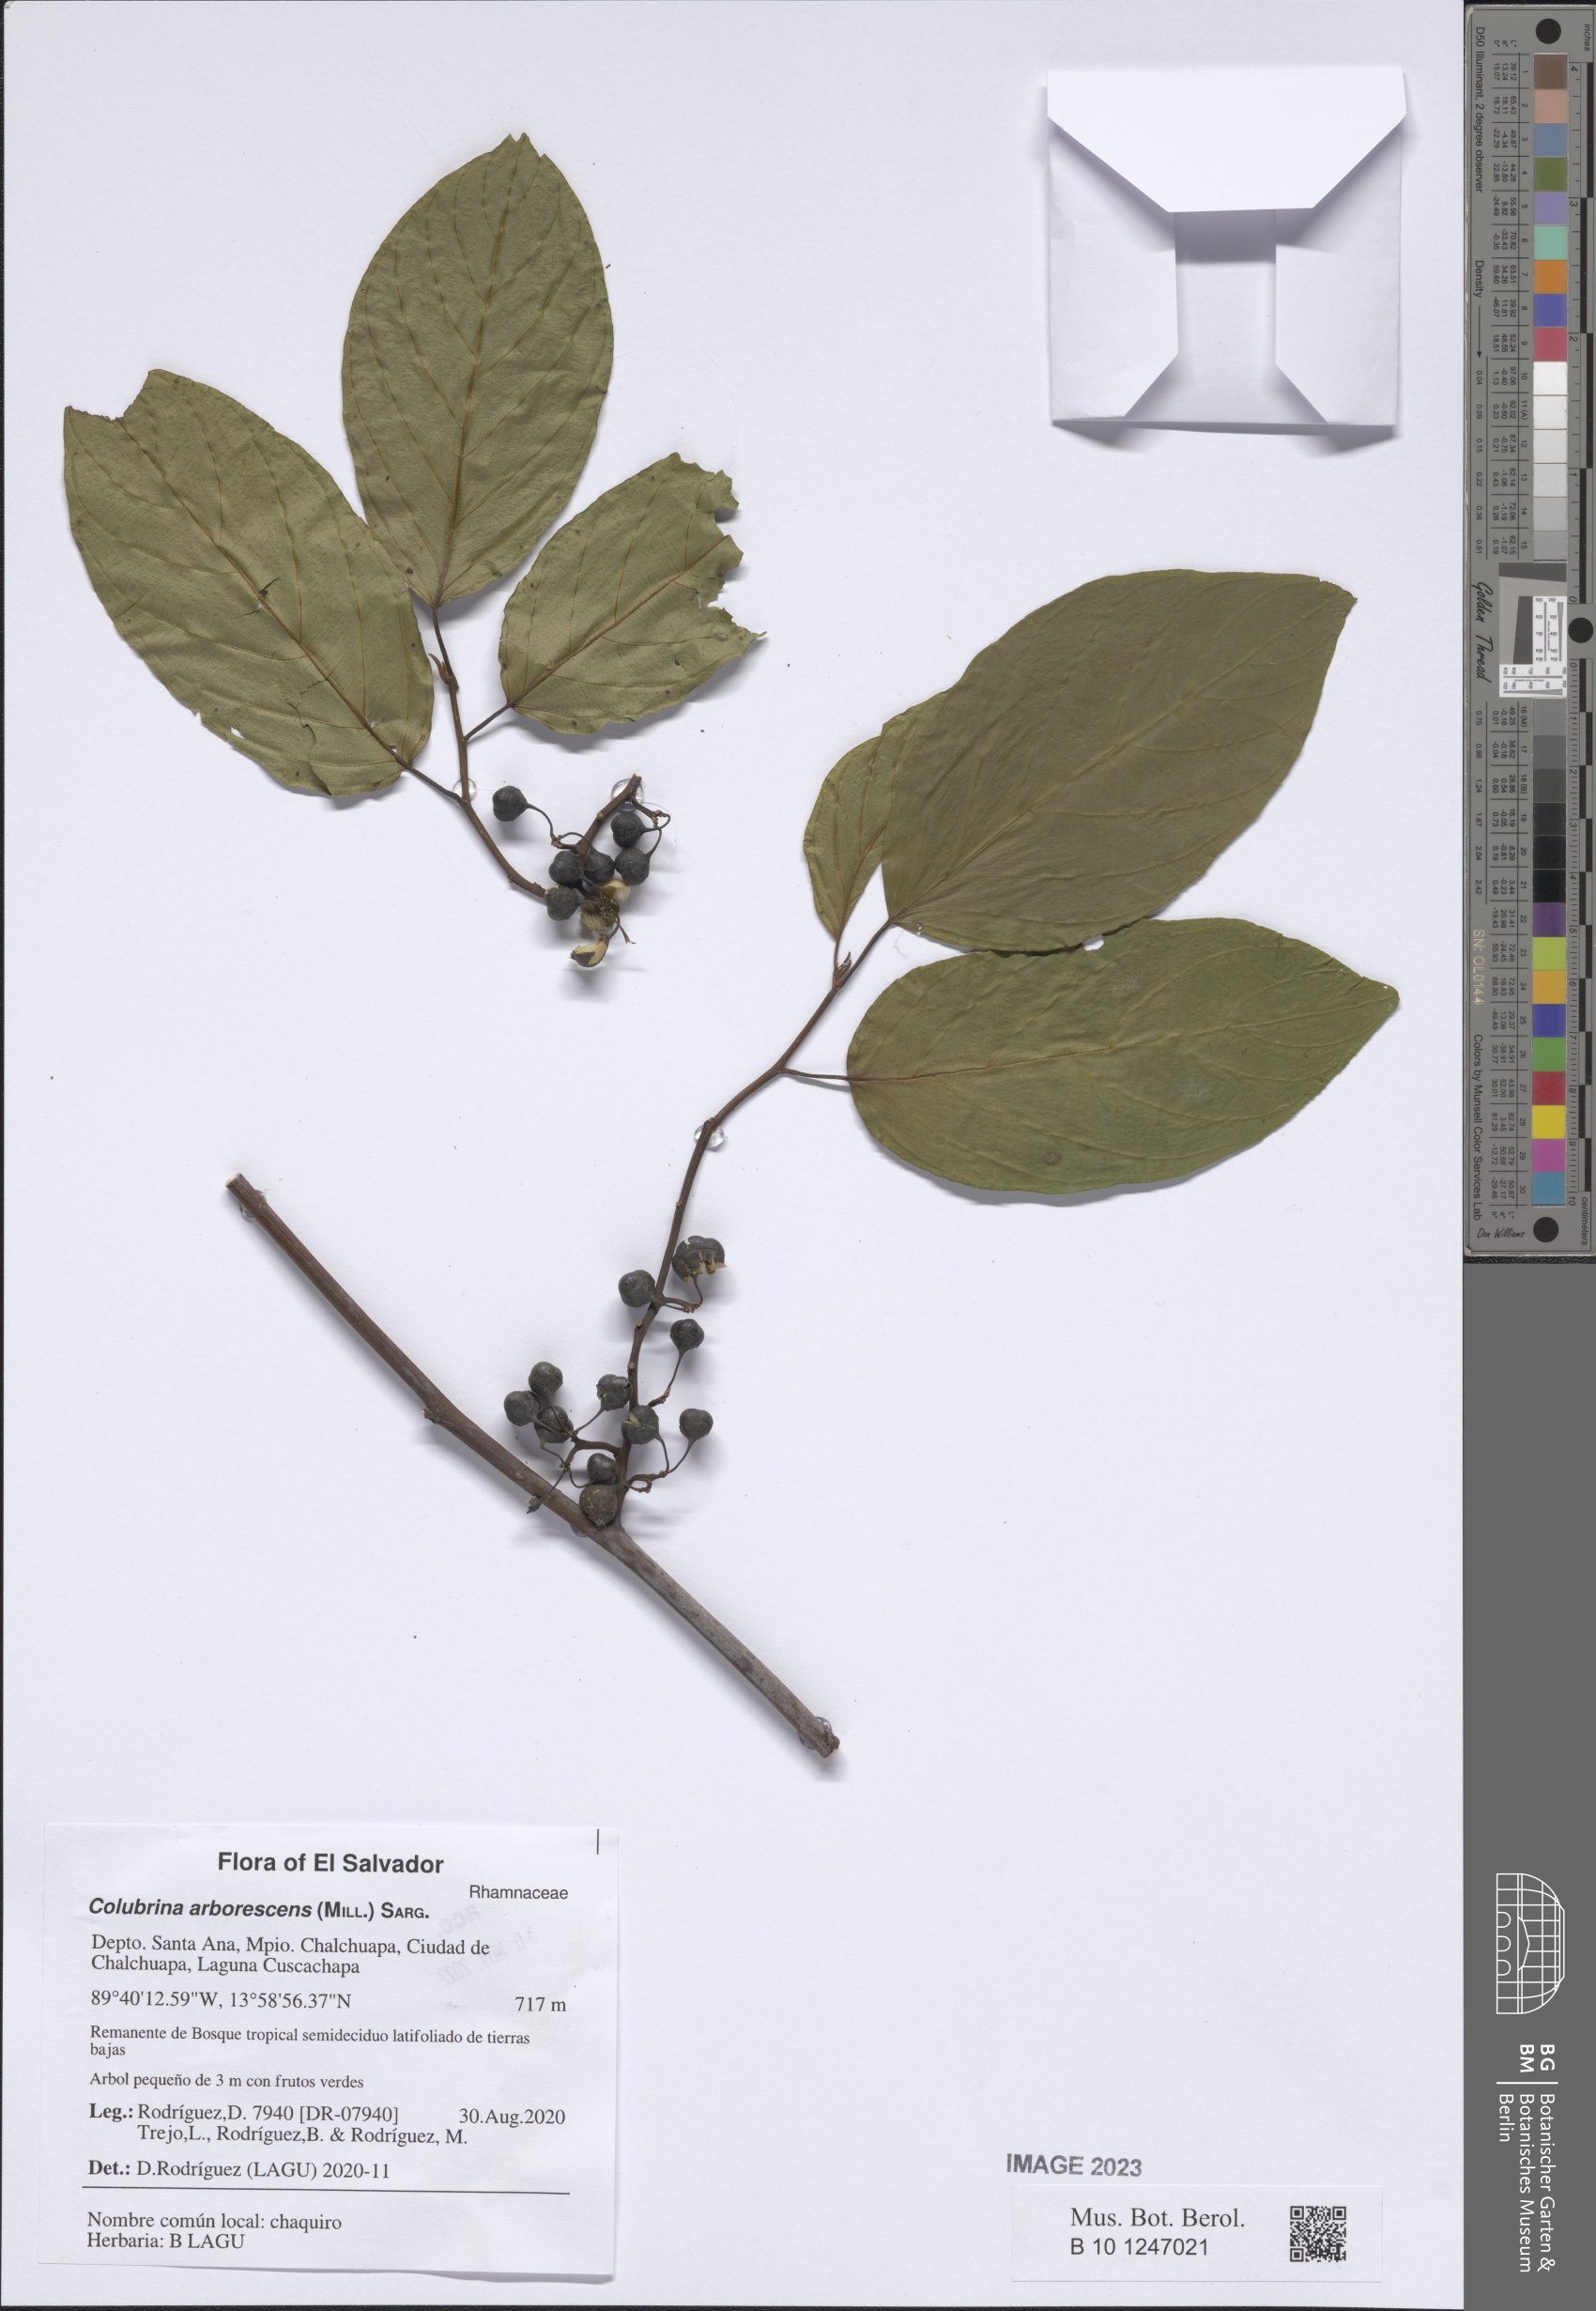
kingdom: Plantae
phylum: Tracheophyta
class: Magnoliopsida
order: Rosales
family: Rhamnaceae
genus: Colubrina
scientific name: Colubrina arborescens
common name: Wild coffee
